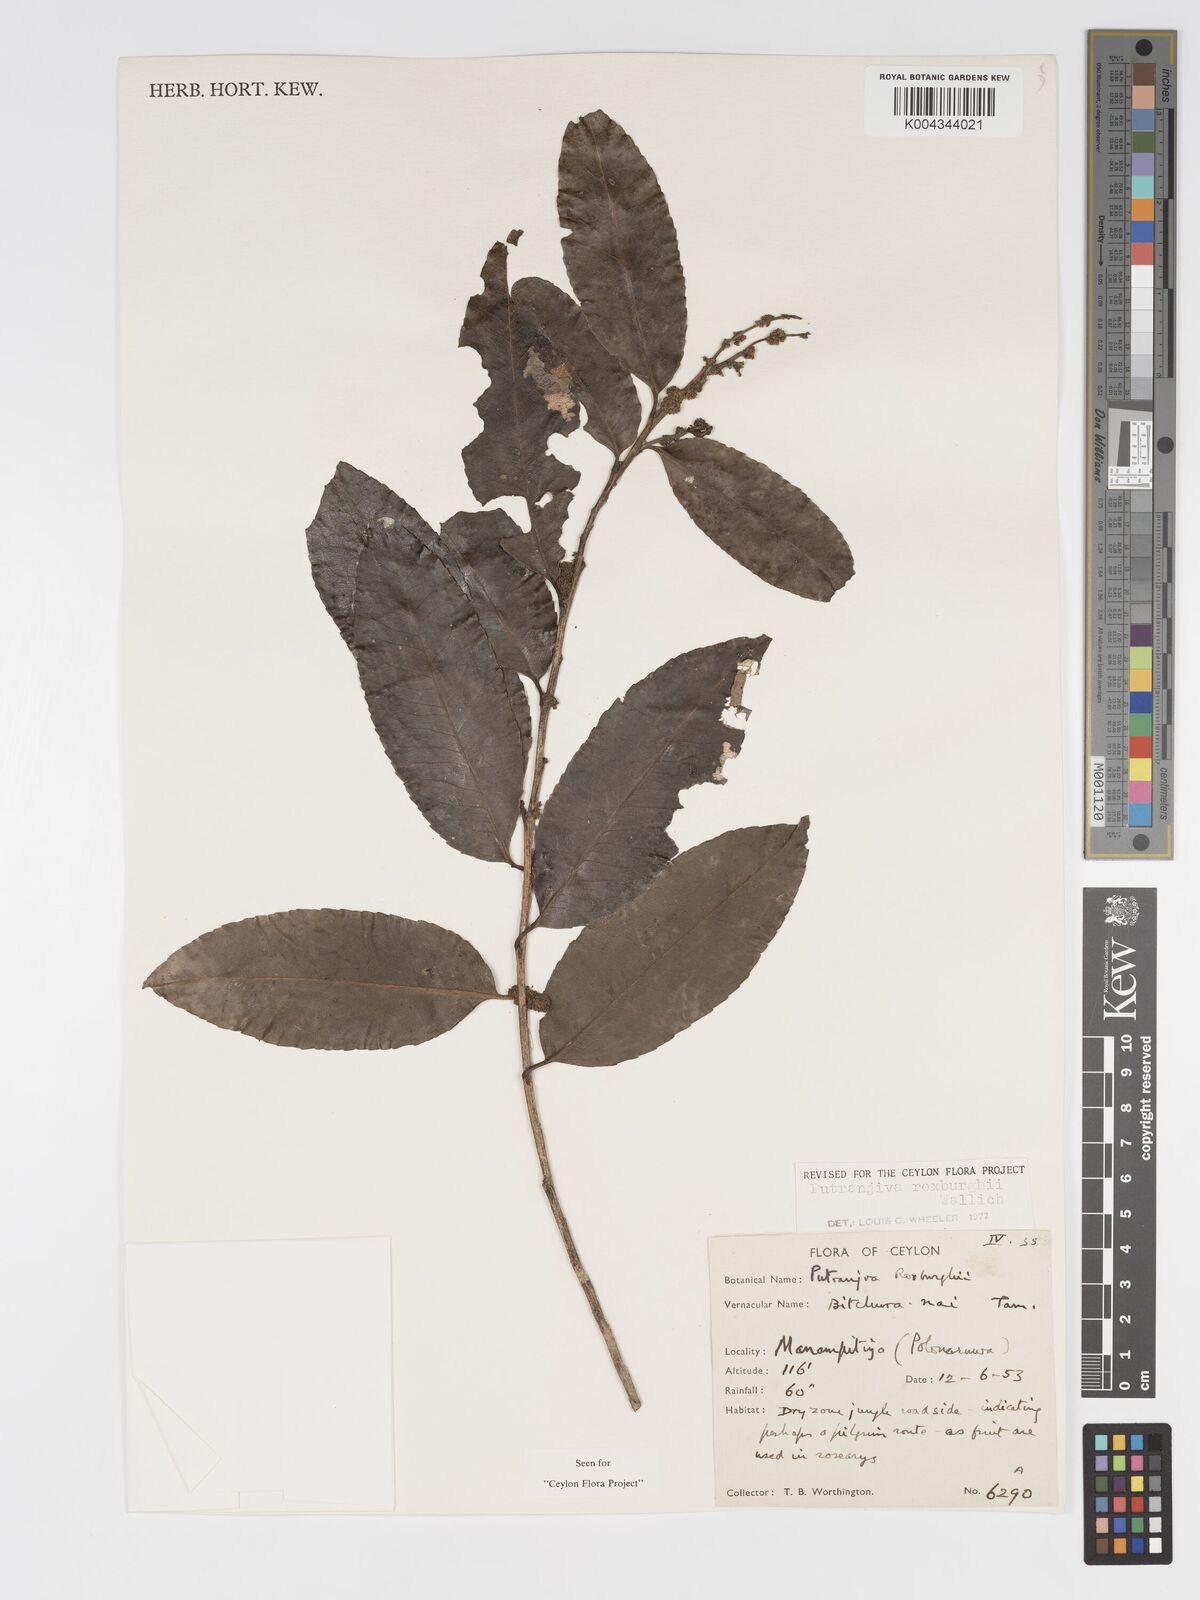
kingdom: Plantae
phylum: Tracheophyta
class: Magnoliopsida
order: Malpighiales
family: Putranjivaceae
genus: Putranjiva
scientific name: Putranjiva roxburghii
